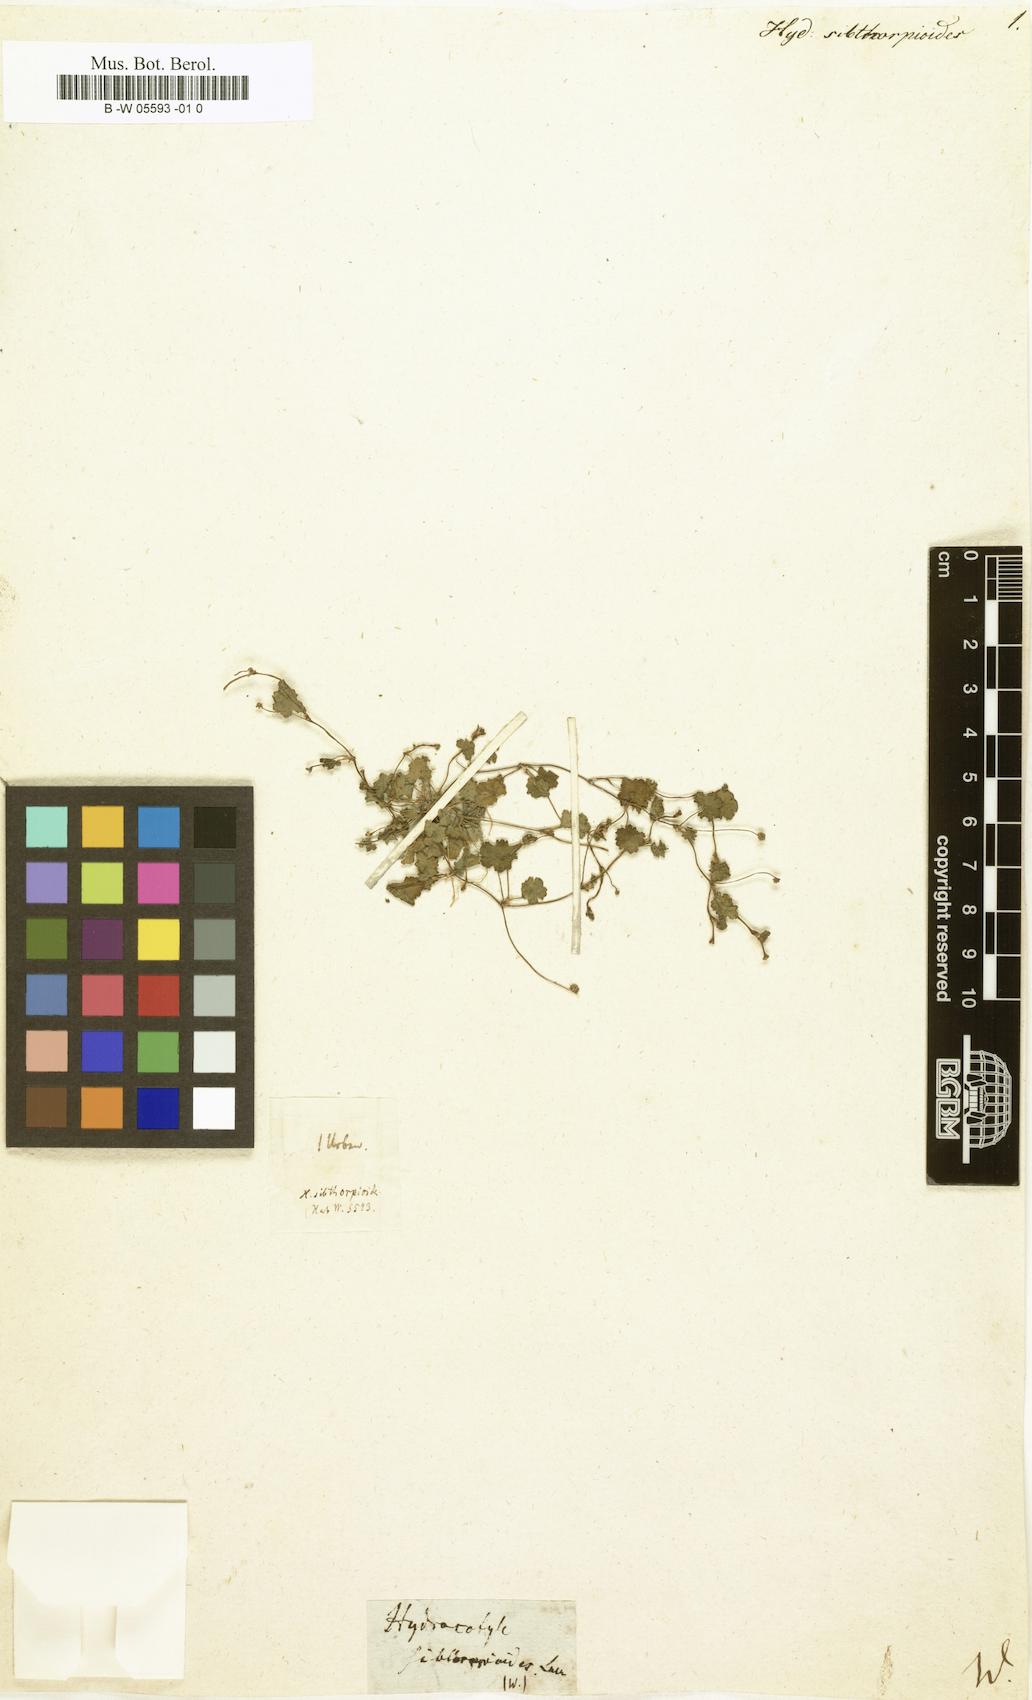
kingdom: Plantae
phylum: Tracheophyta
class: Magnoliopsida
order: Apiales
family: Araliaceae
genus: Hydrocotyle
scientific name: Hydrocotyle sibthorpioides
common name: Lawn marshpennywort
